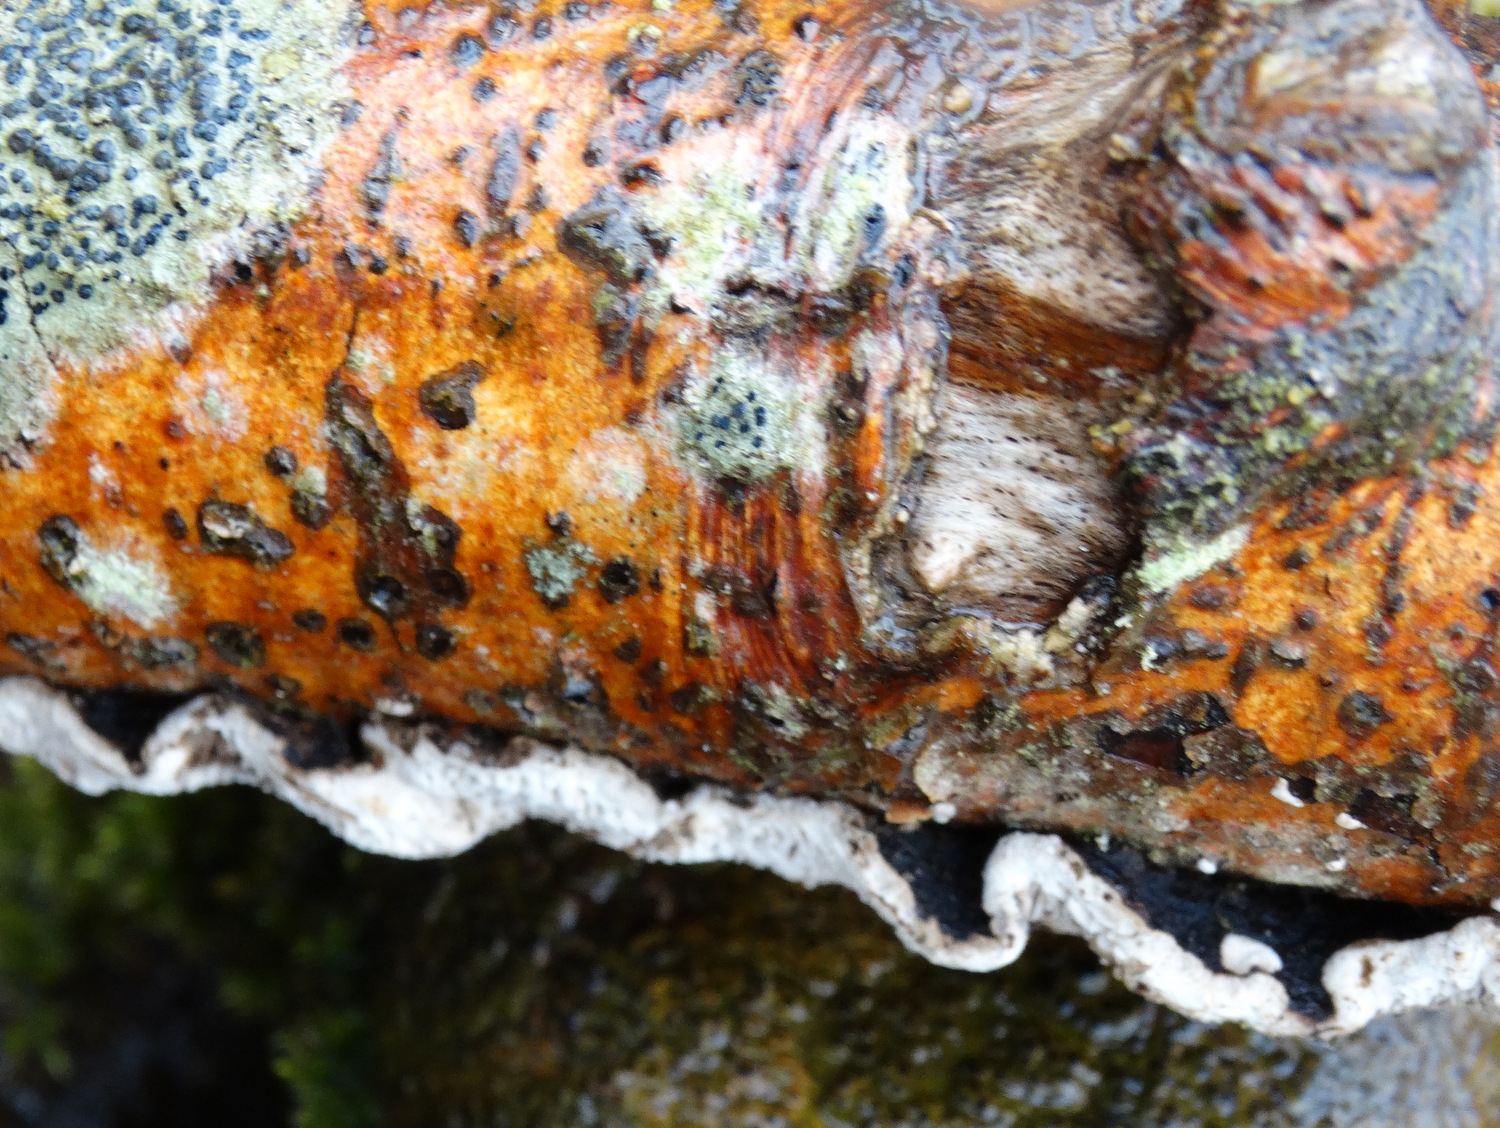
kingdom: Fungi
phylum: Basidiomycota
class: Agaricomycetes
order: Polyporales
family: Polyporaceae
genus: Podofomes
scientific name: Podofomes mollis
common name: blød begporesvamp
